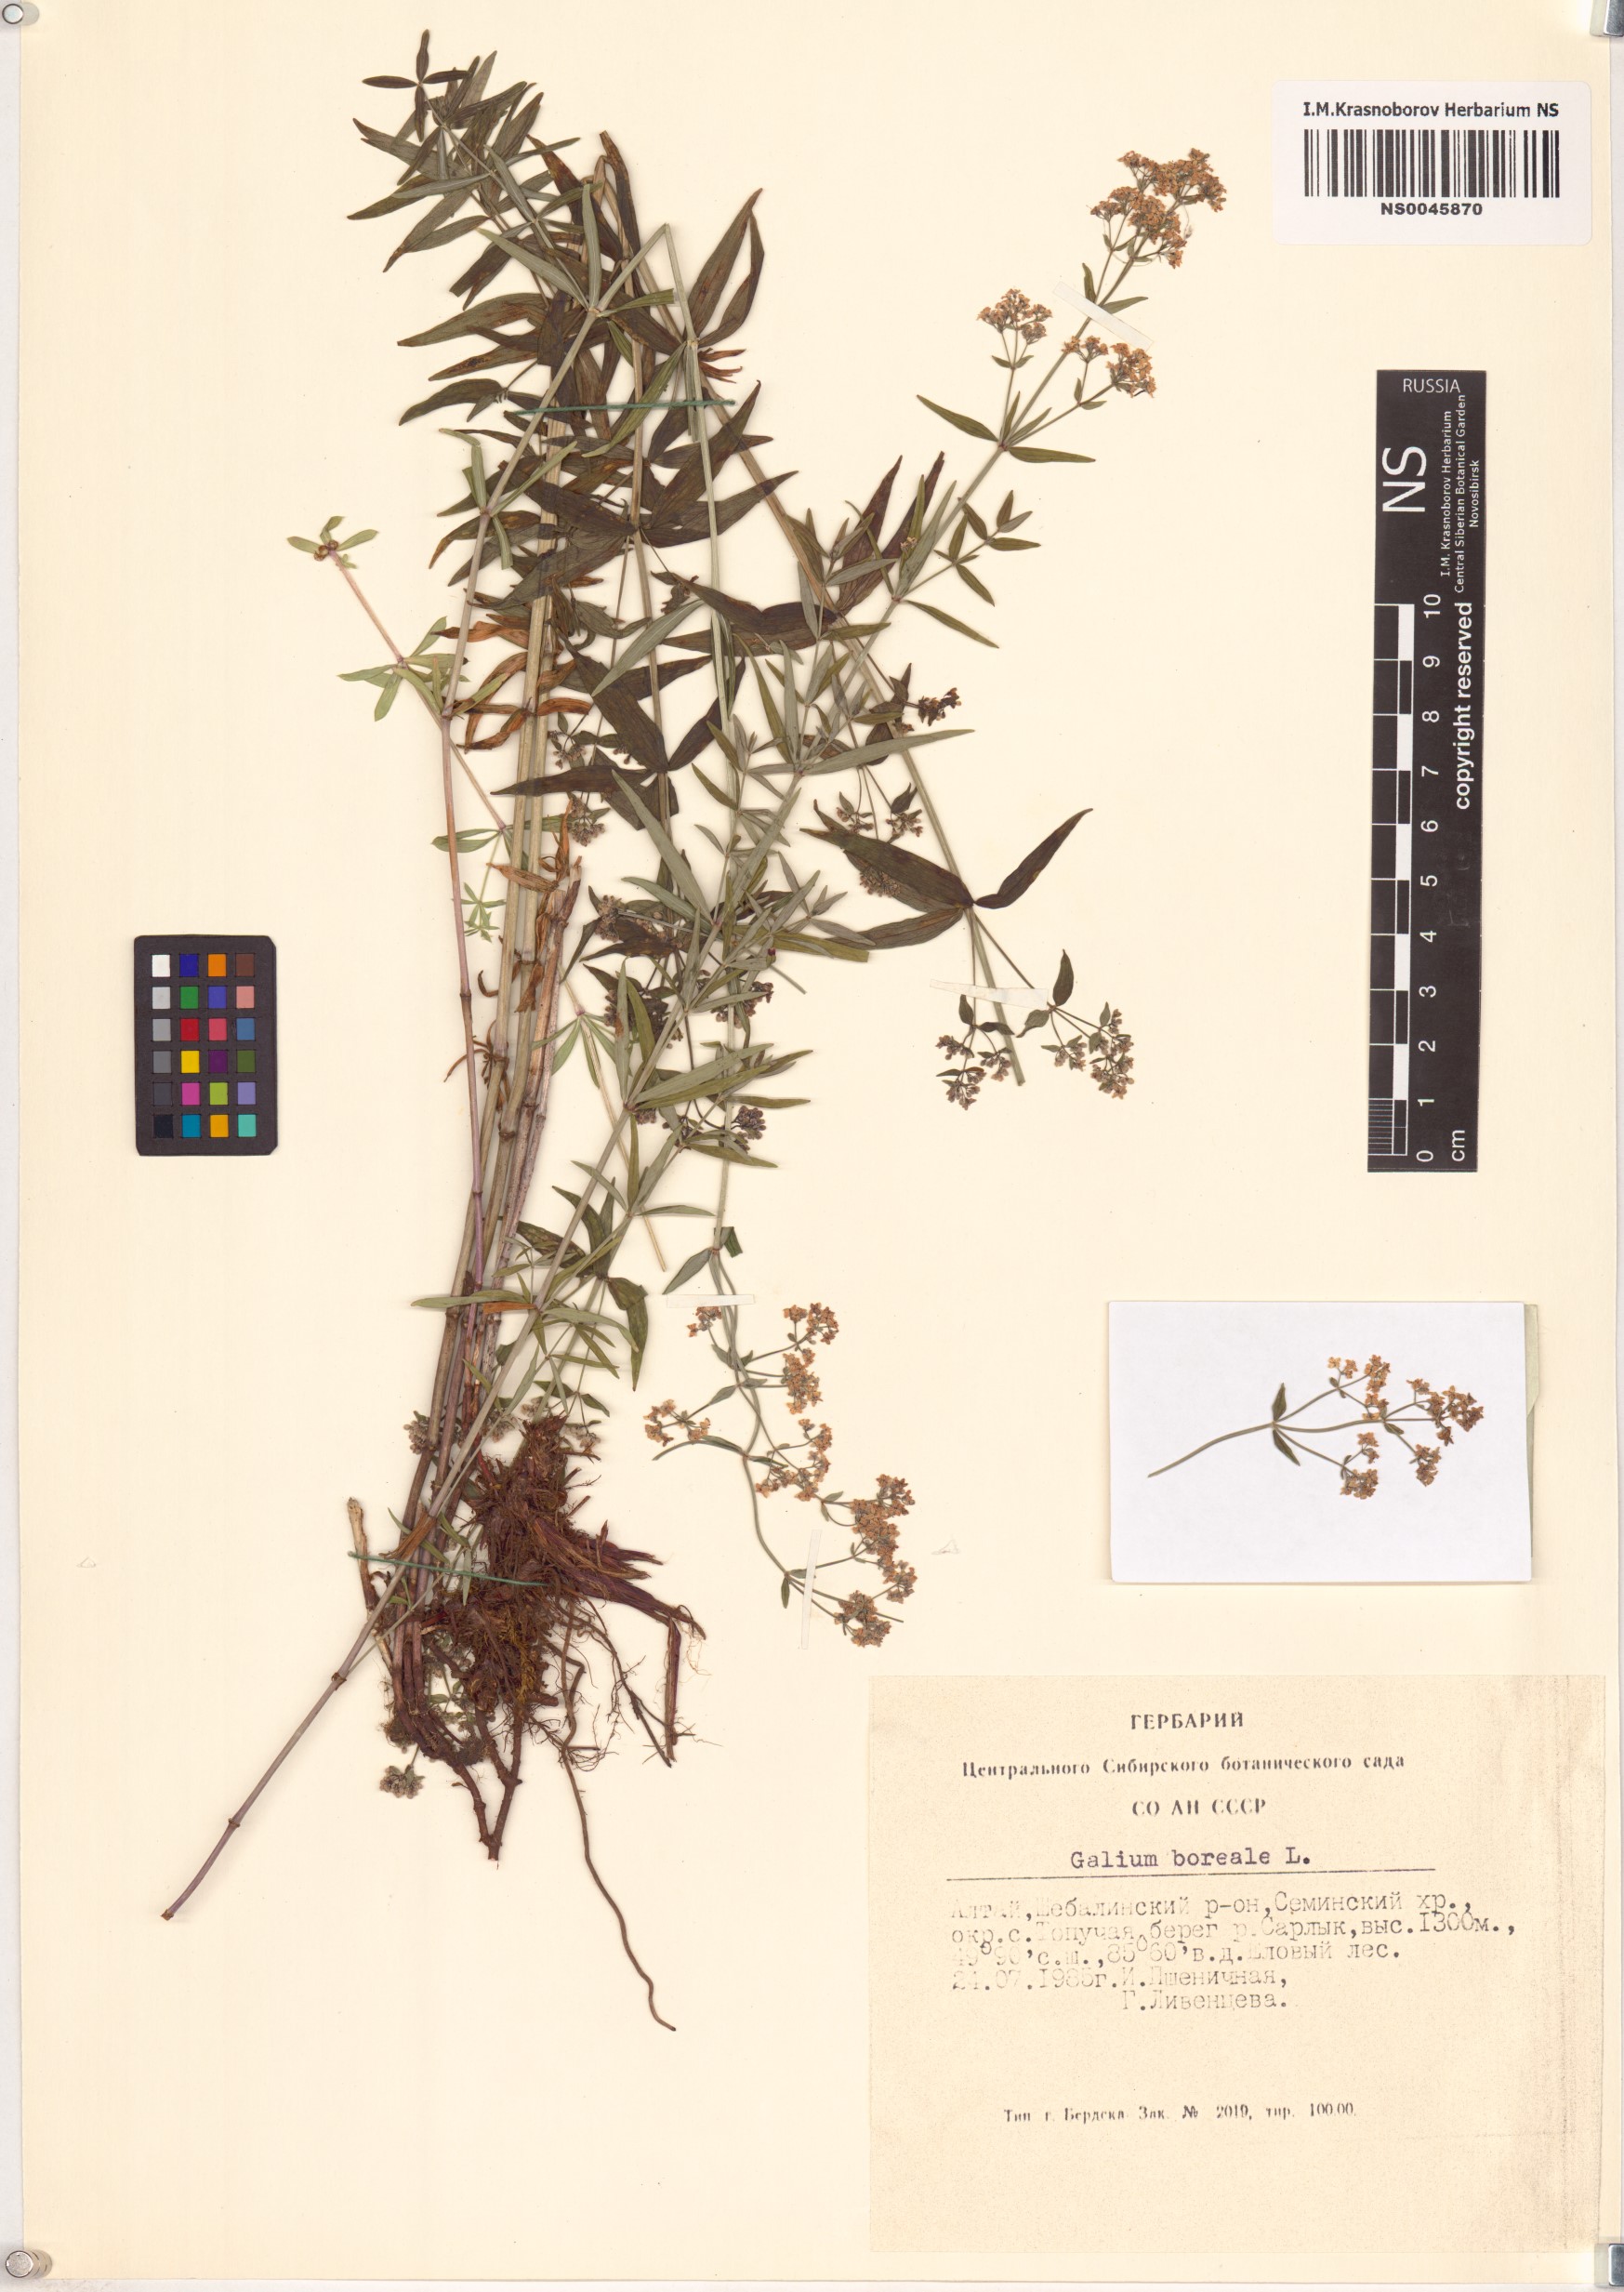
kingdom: Plantae
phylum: Tracheophyta
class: Magnoliopsida
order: Gentianales
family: Rubiaceae
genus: Galium
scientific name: Galium boreale
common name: Northern bedstraw
